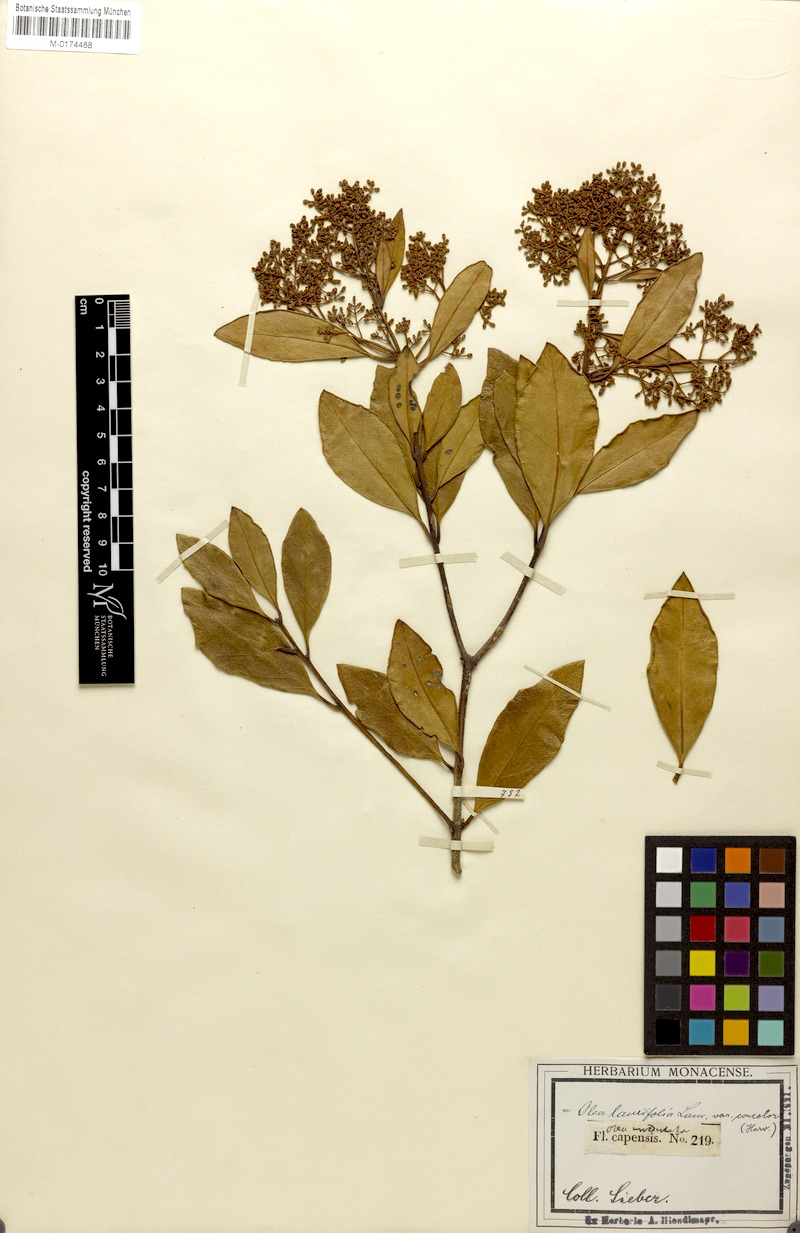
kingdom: Plantae
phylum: Tracheophyta
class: Magnoliopsida
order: Lamiales
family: Oleaceae
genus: Olea
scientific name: Olea capensis
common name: Black ironwood
